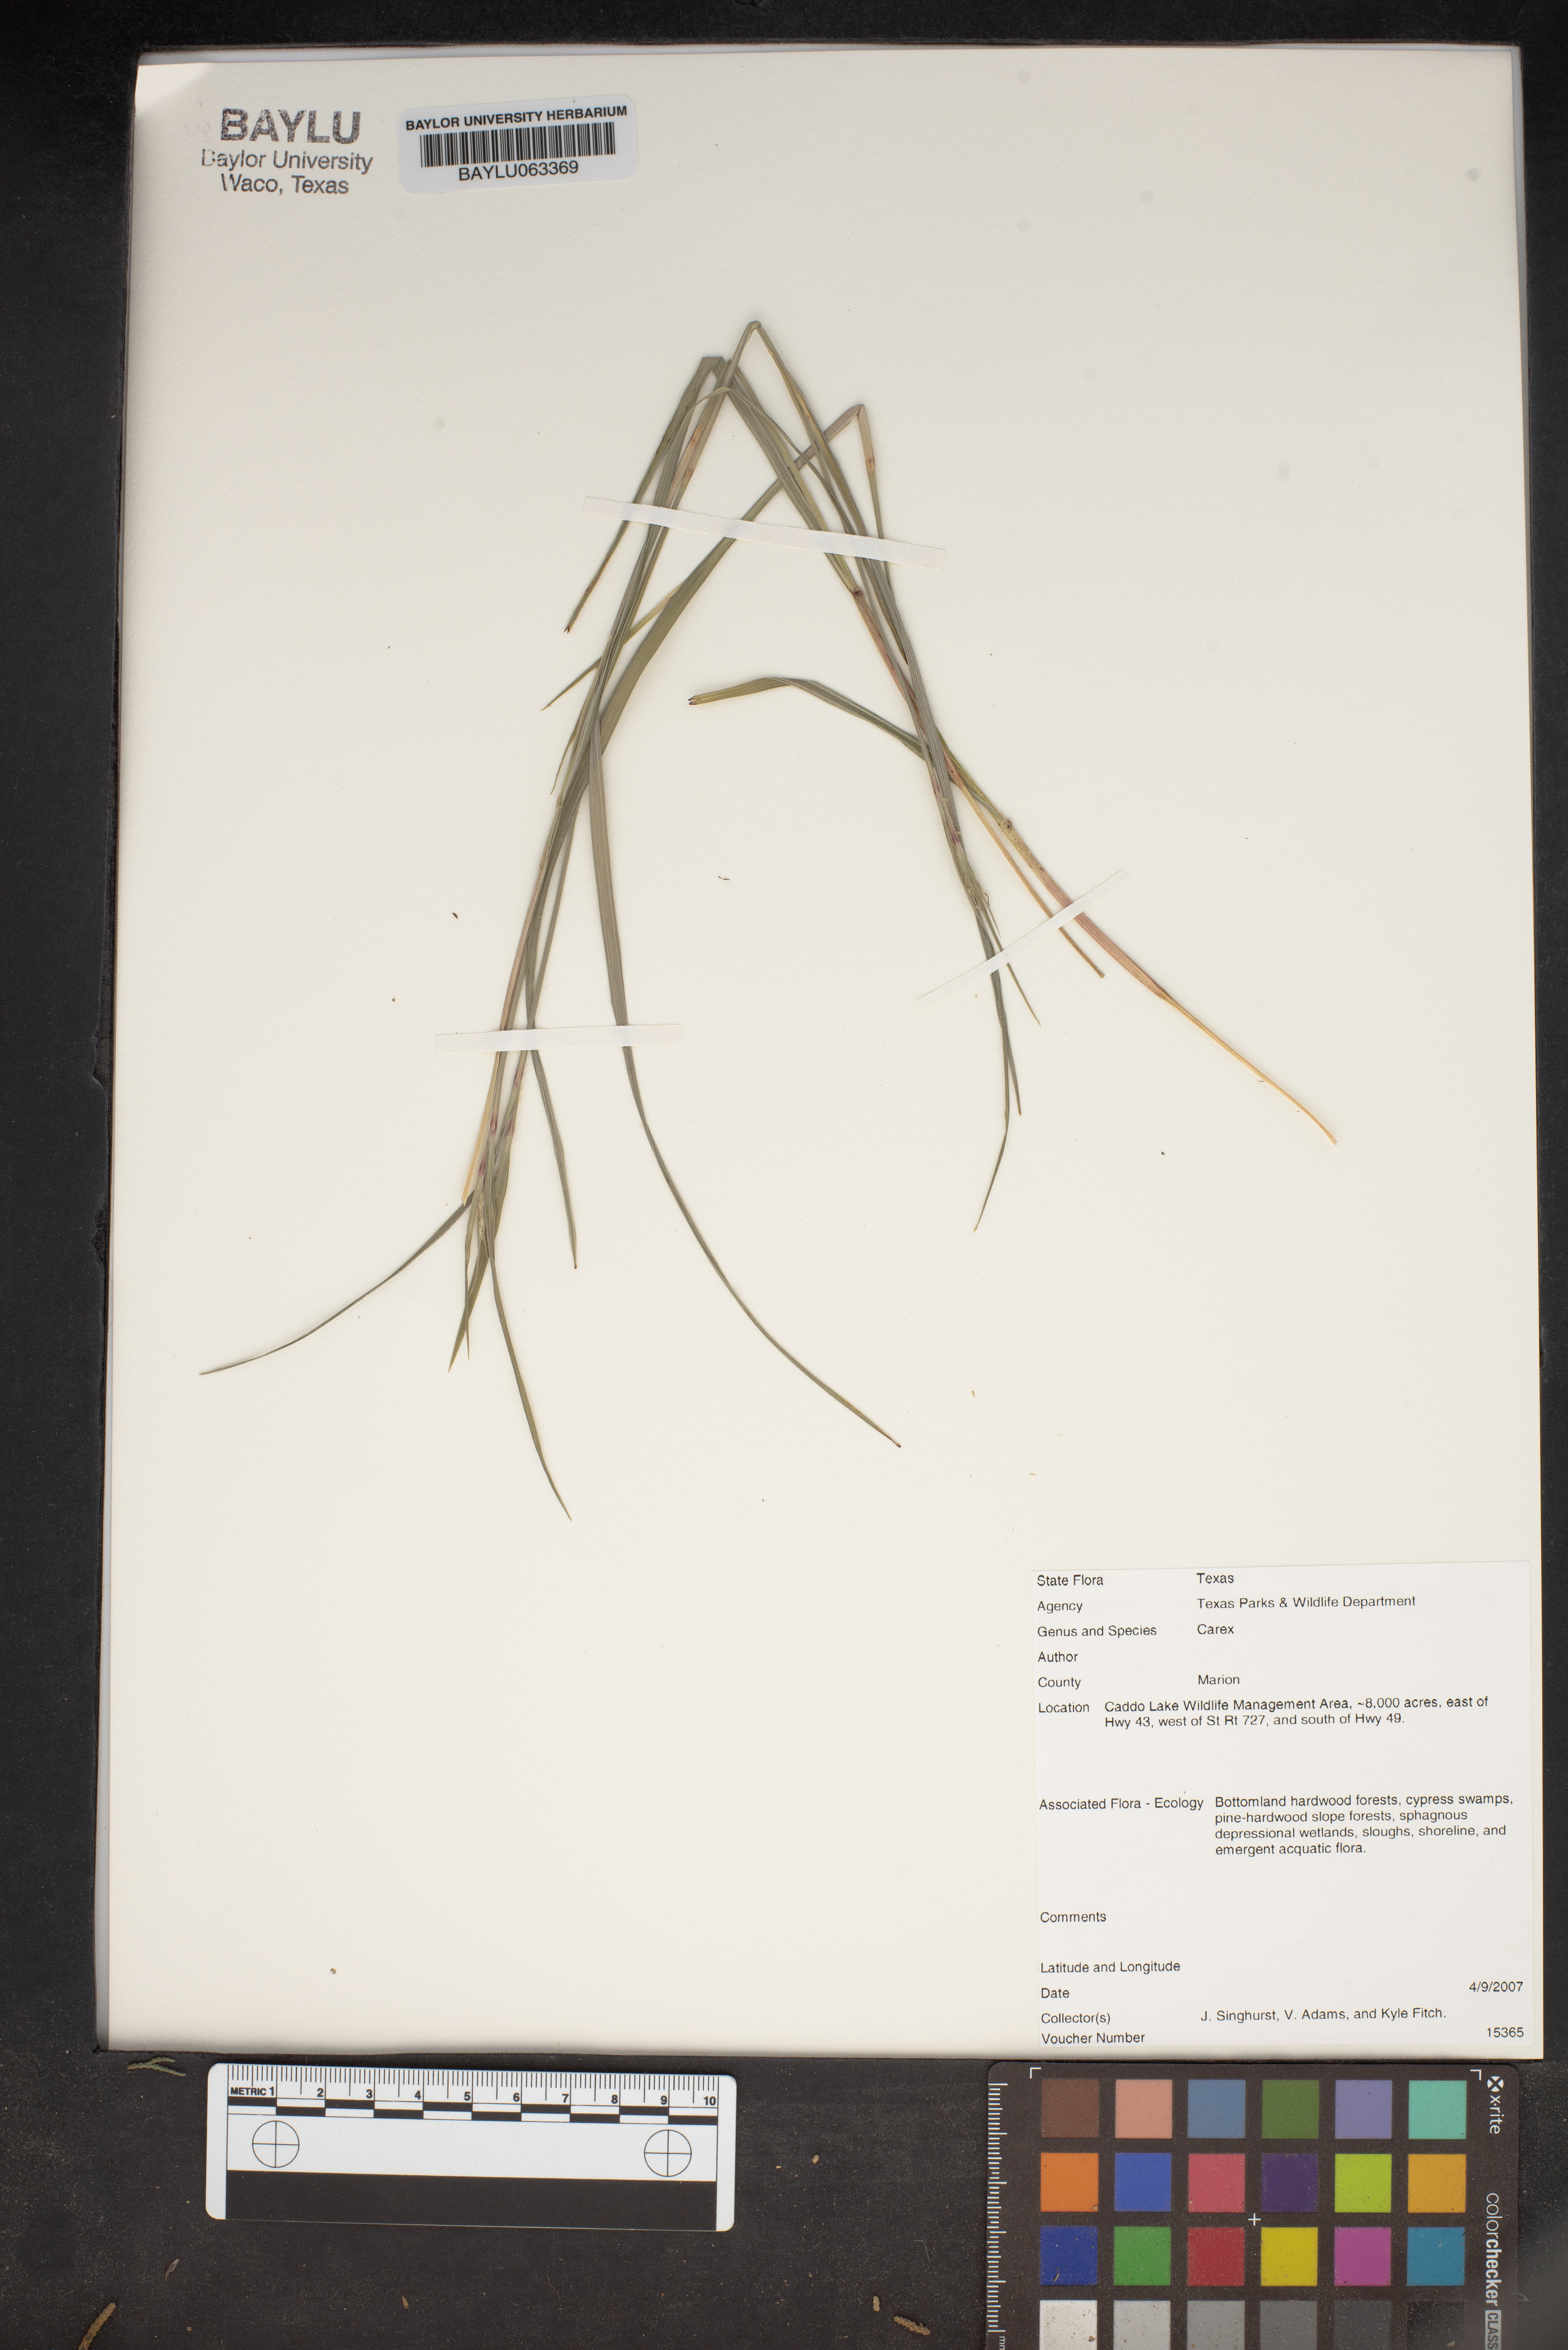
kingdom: Plantae
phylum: Tracheophyta
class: Liliopsida
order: Poales
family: Cyperaceae
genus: Carex
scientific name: Carex
